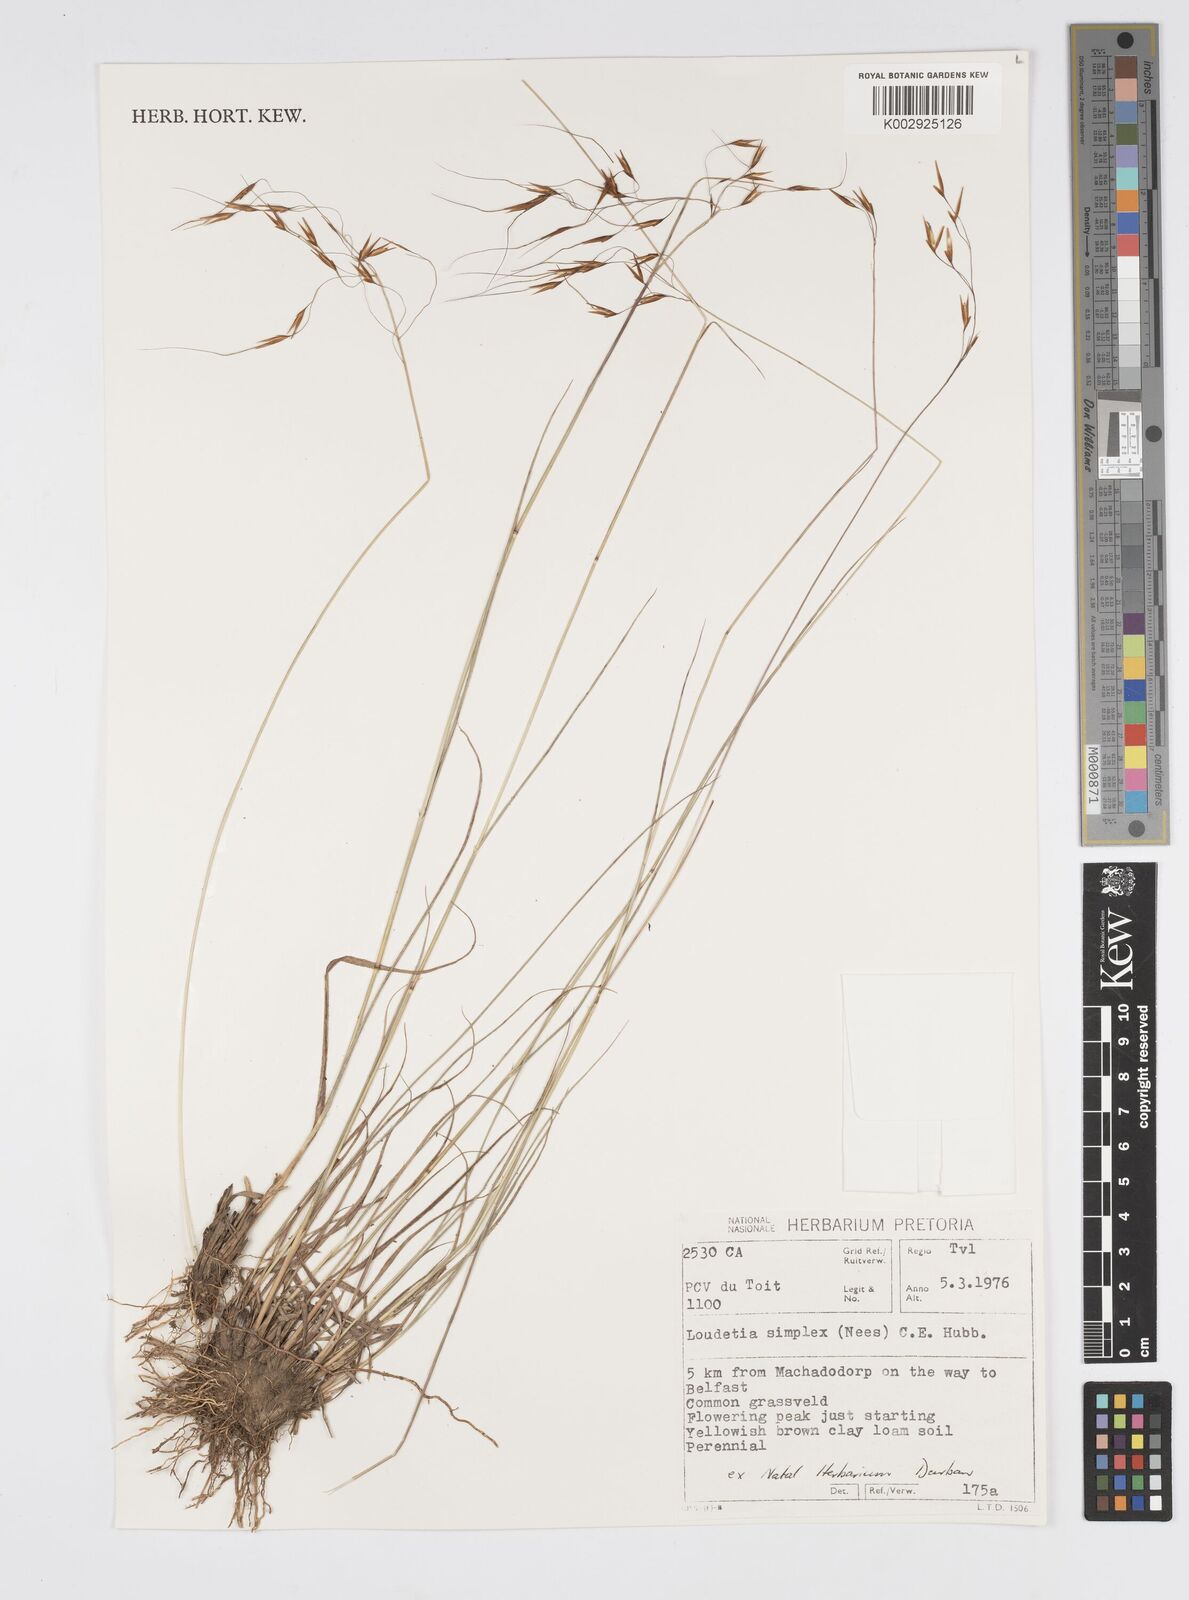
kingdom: Plantae
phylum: Tracheophyta
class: Liliopsida
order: Poales
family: Poaceae
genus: Loudetia
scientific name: Loudetia simplex
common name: Common russet grass
